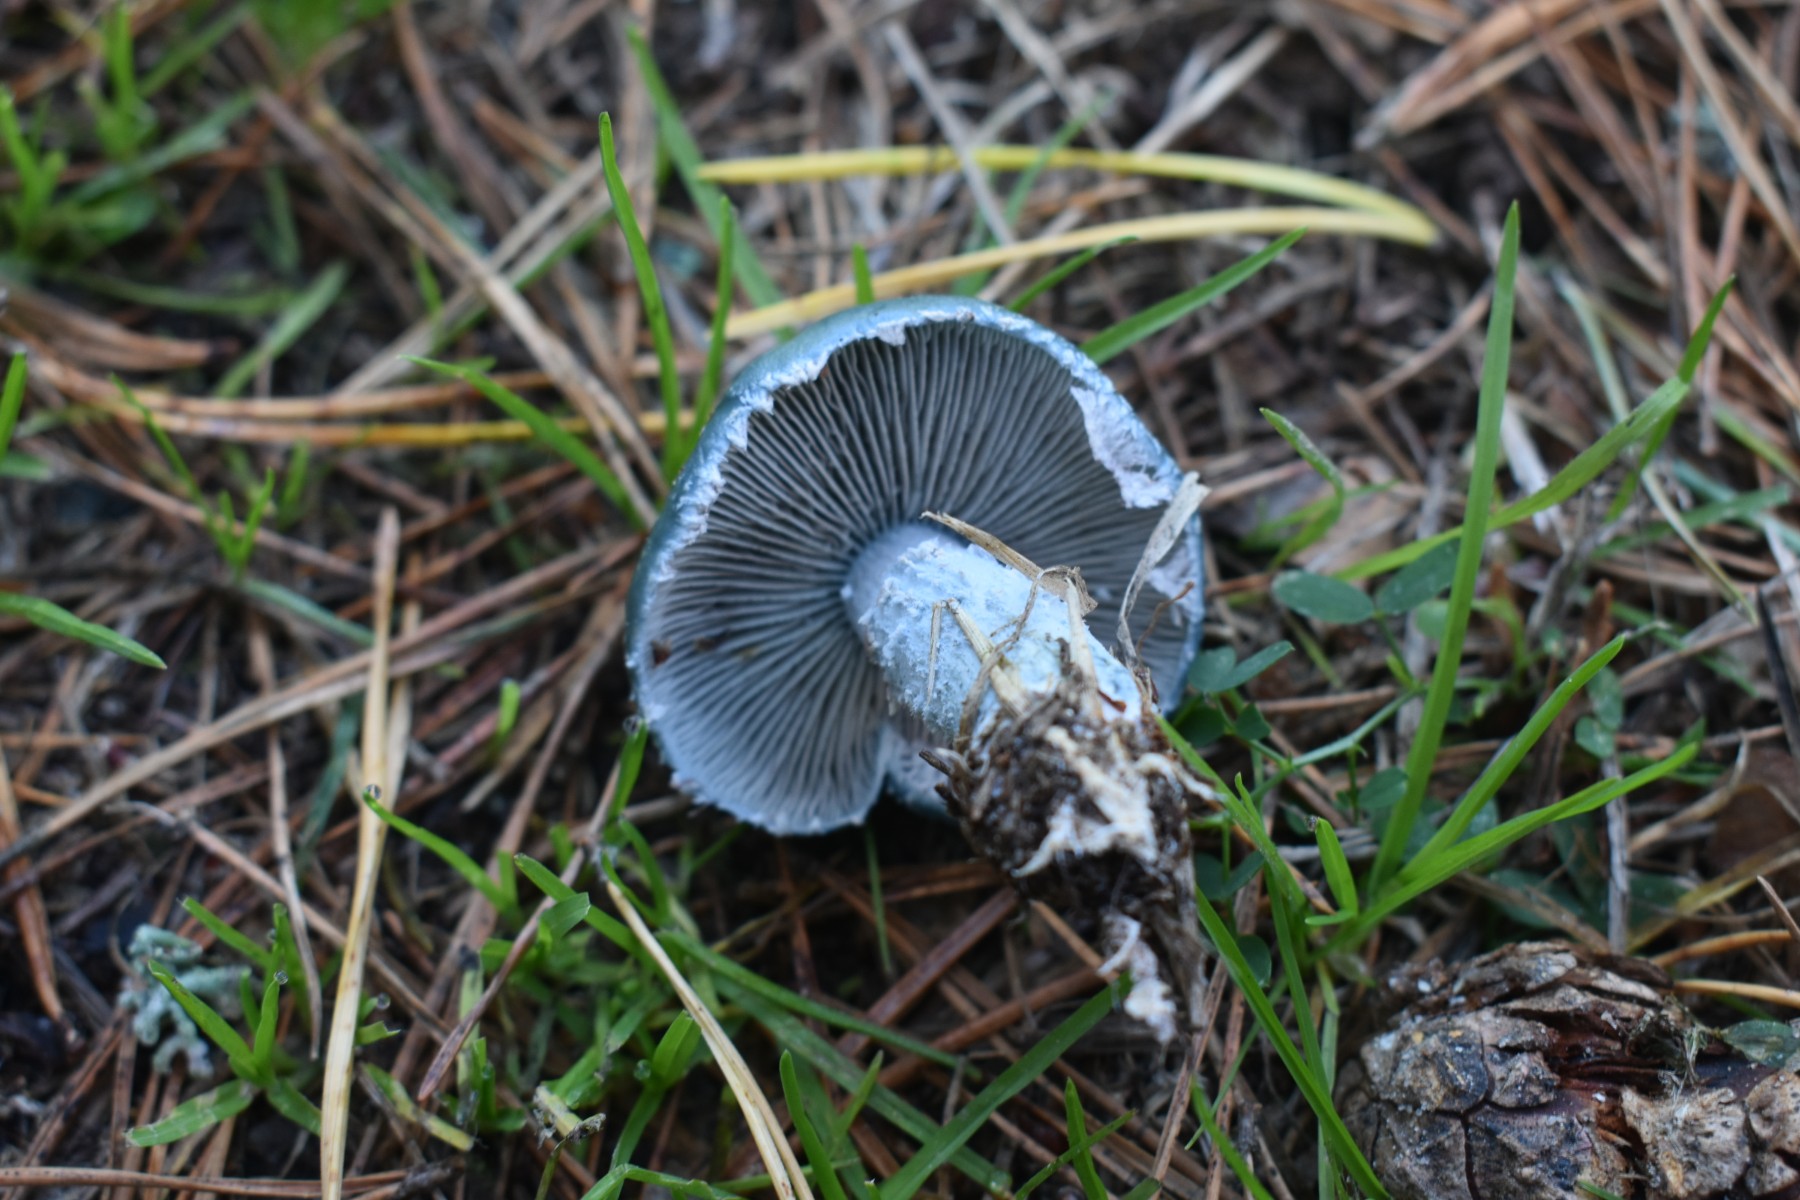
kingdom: Fungi
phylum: Basidiomycota
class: Agaricomycetes
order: Agaricales
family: Strophariaceae
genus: Stropharia
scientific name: Stropharia cyanea
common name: blågrøn bredblad
